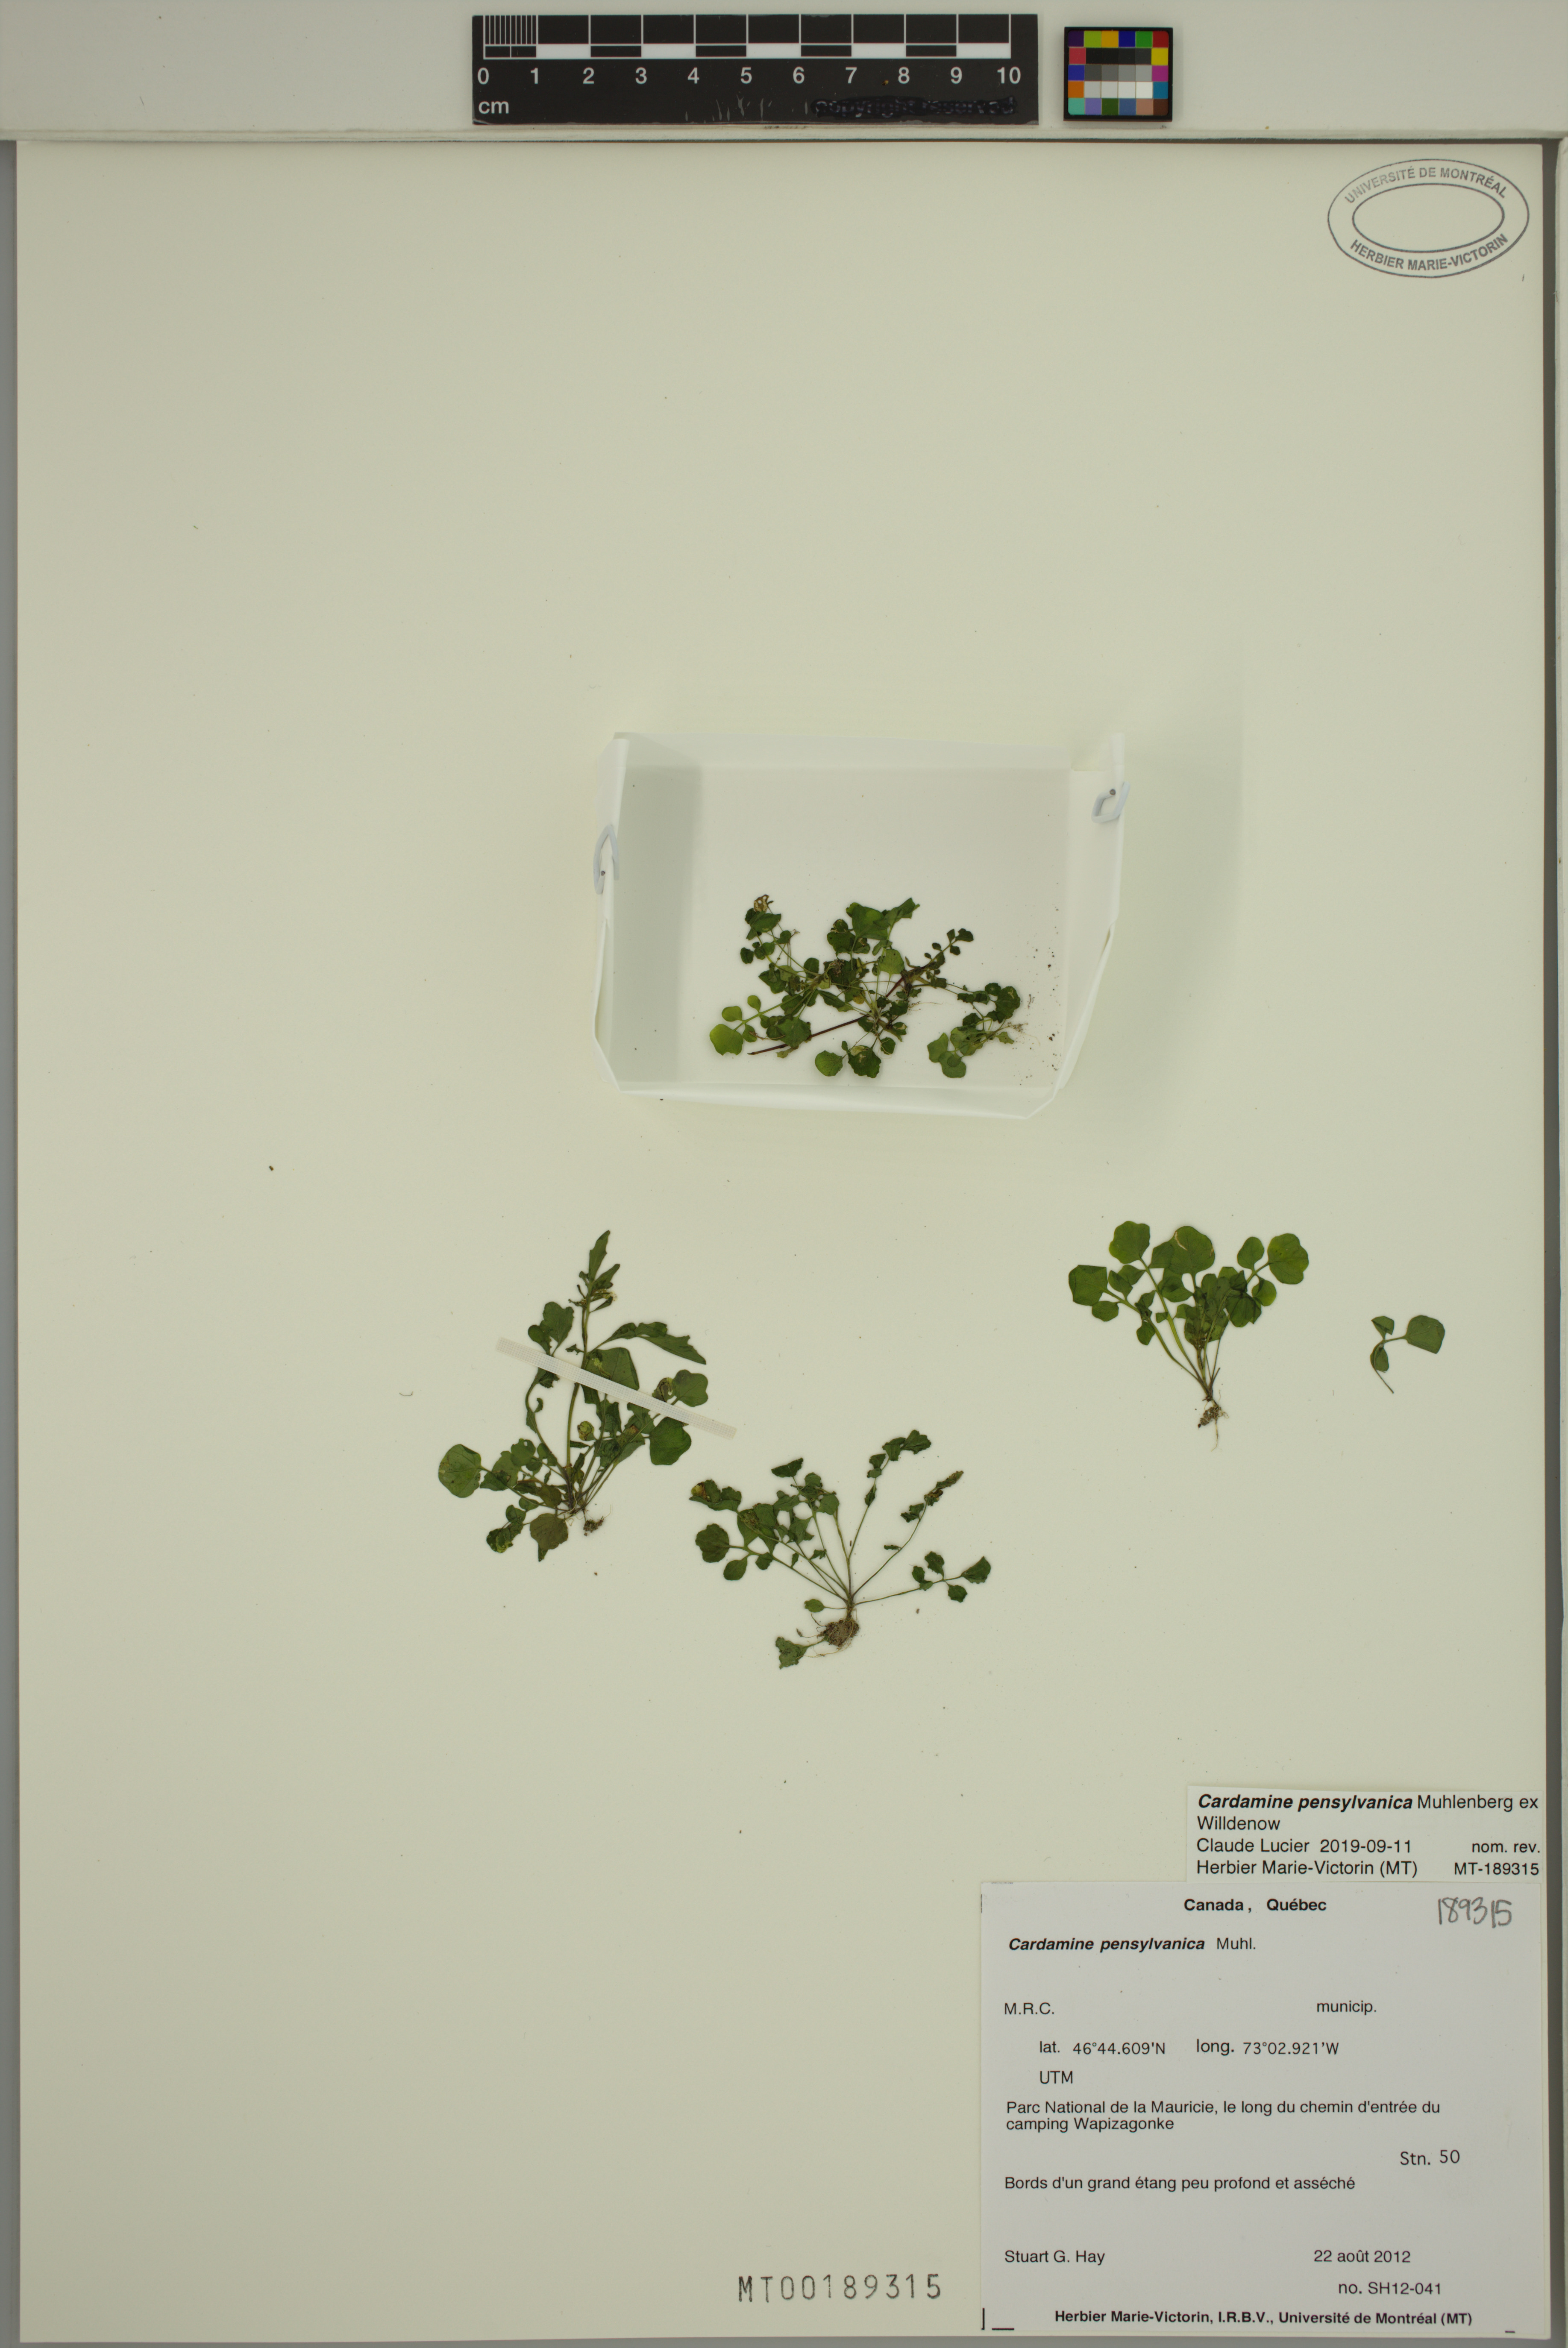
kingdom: Plantae
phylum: Tracheophyta
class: Magnoliopsida
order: Brassicales
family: Brassicaceae
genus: Cardamine
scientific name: Cardamine pensylvanica
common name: Pennsylvania bittercress
